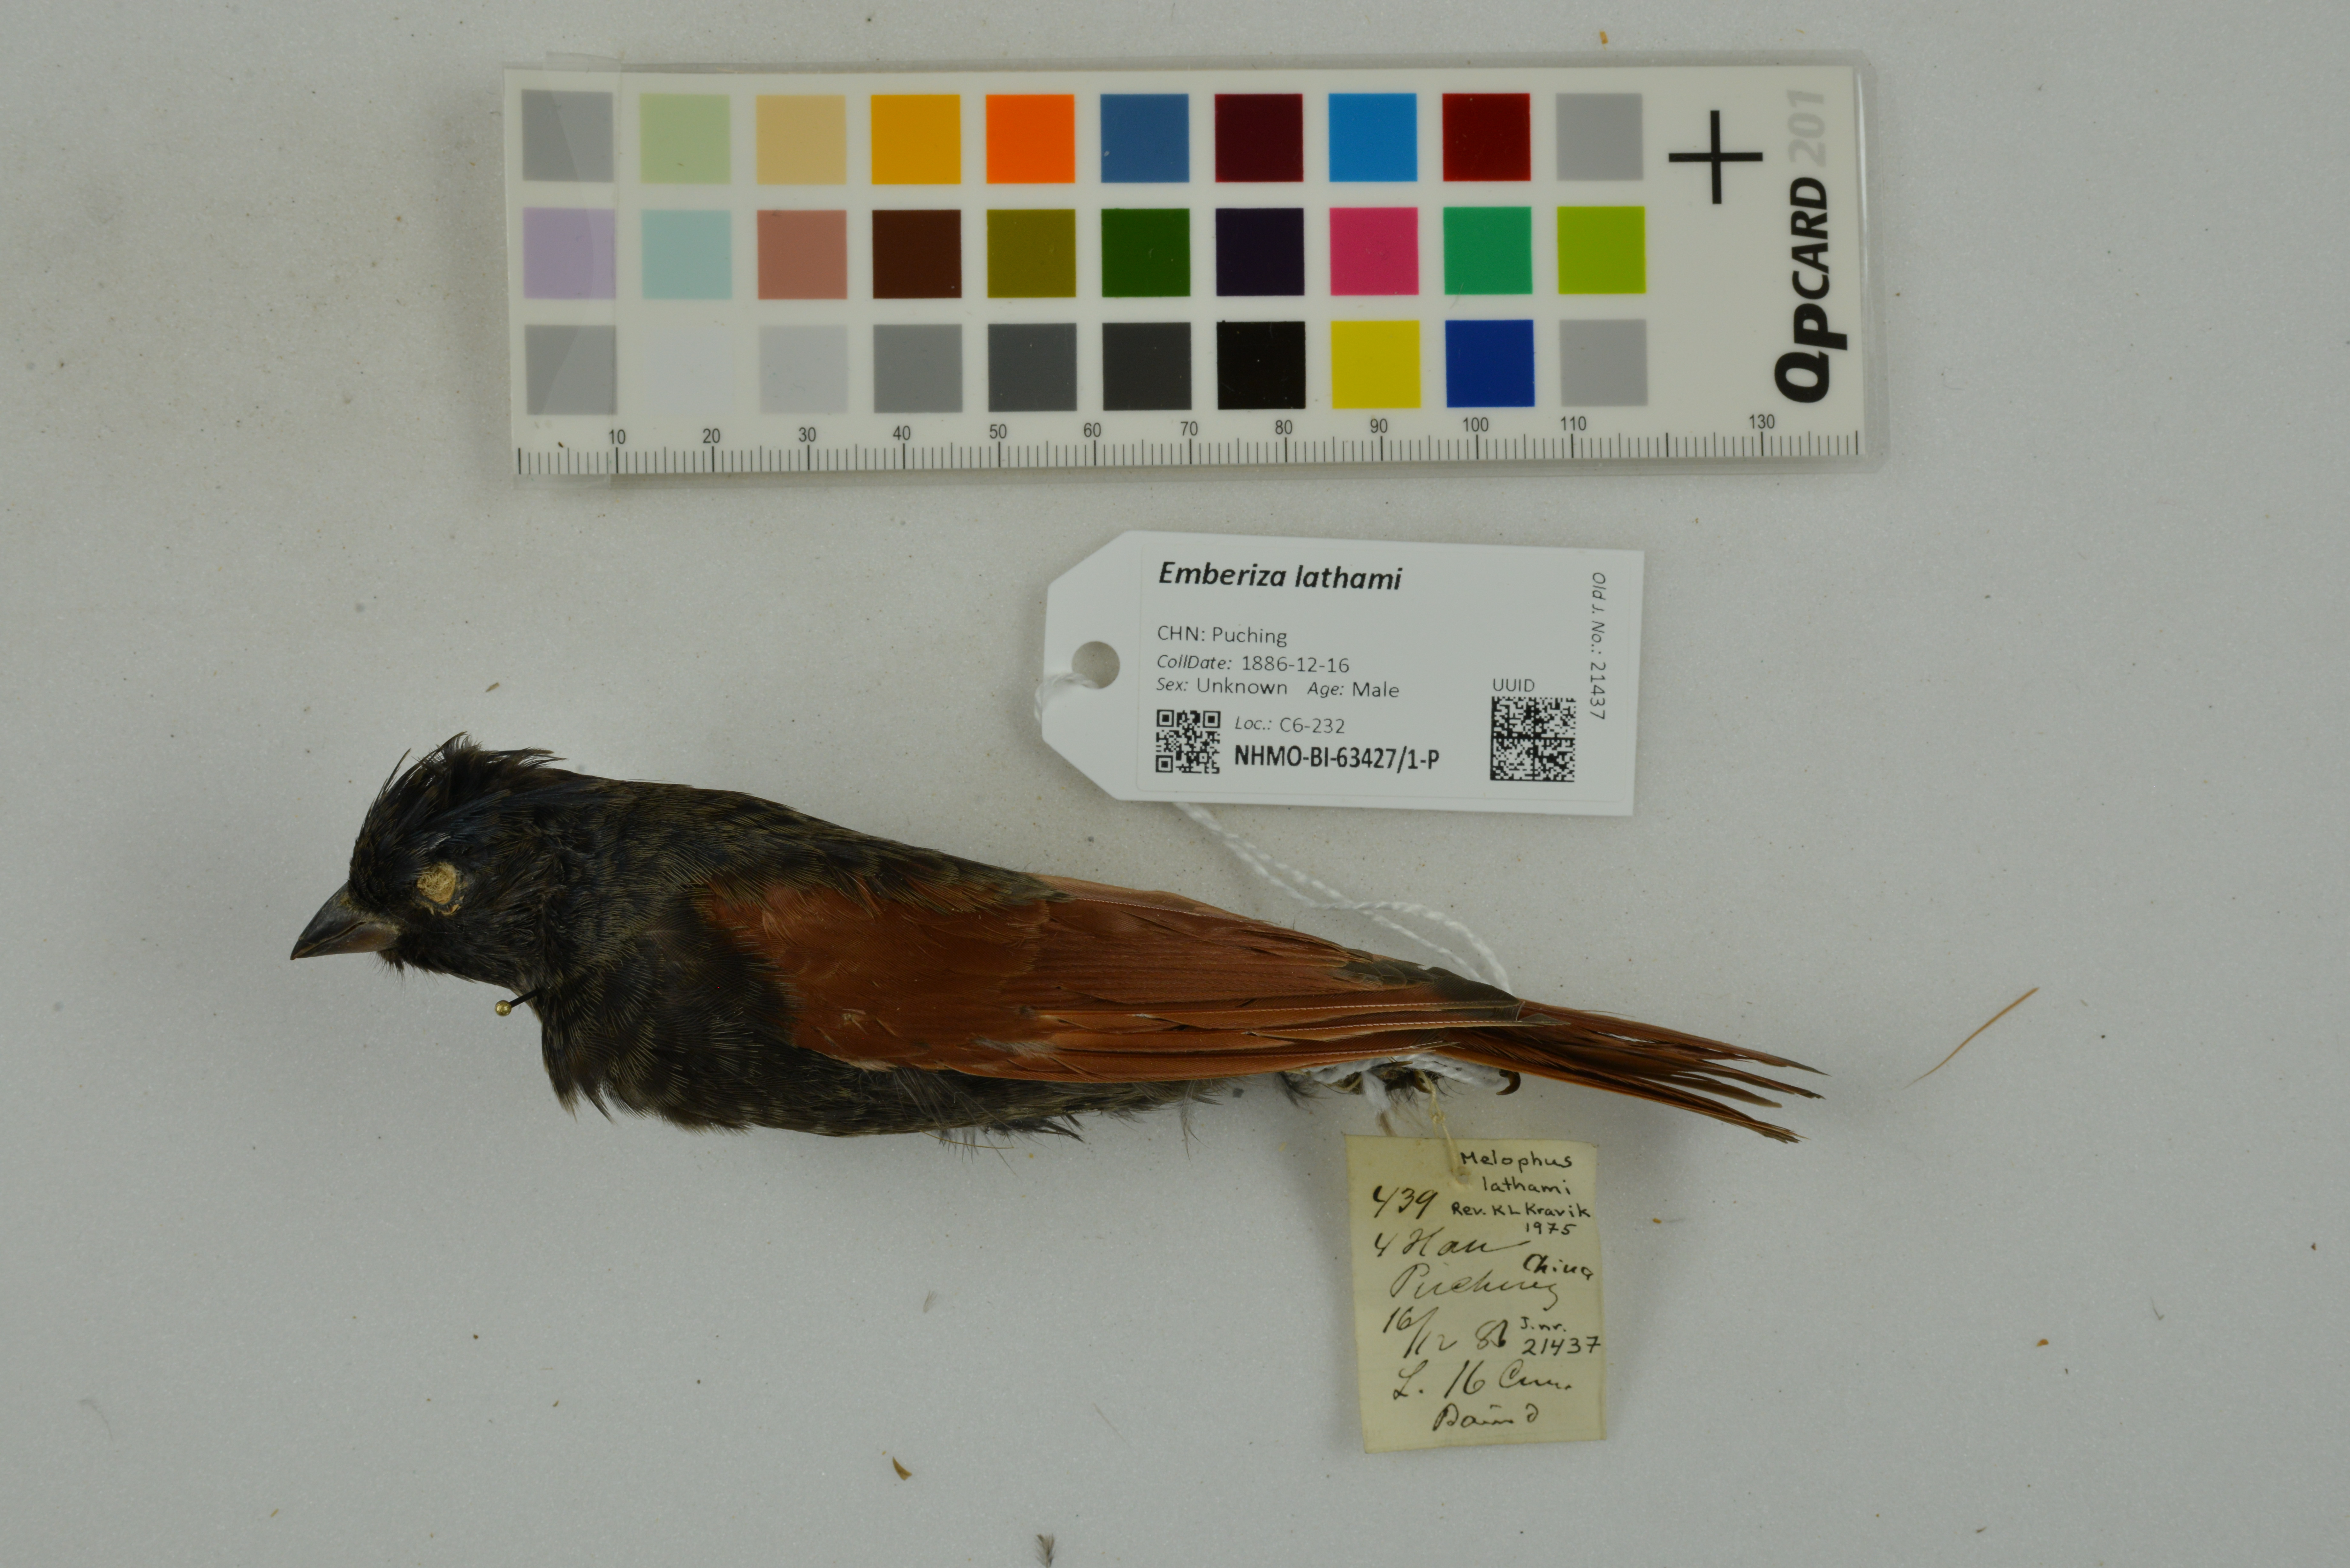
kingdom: Animalia
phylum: Chordata
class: Aves
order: Passeriformes
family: Emberizidae
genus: Emberiza
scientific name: Emberiza lathami
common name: Crested bunting
